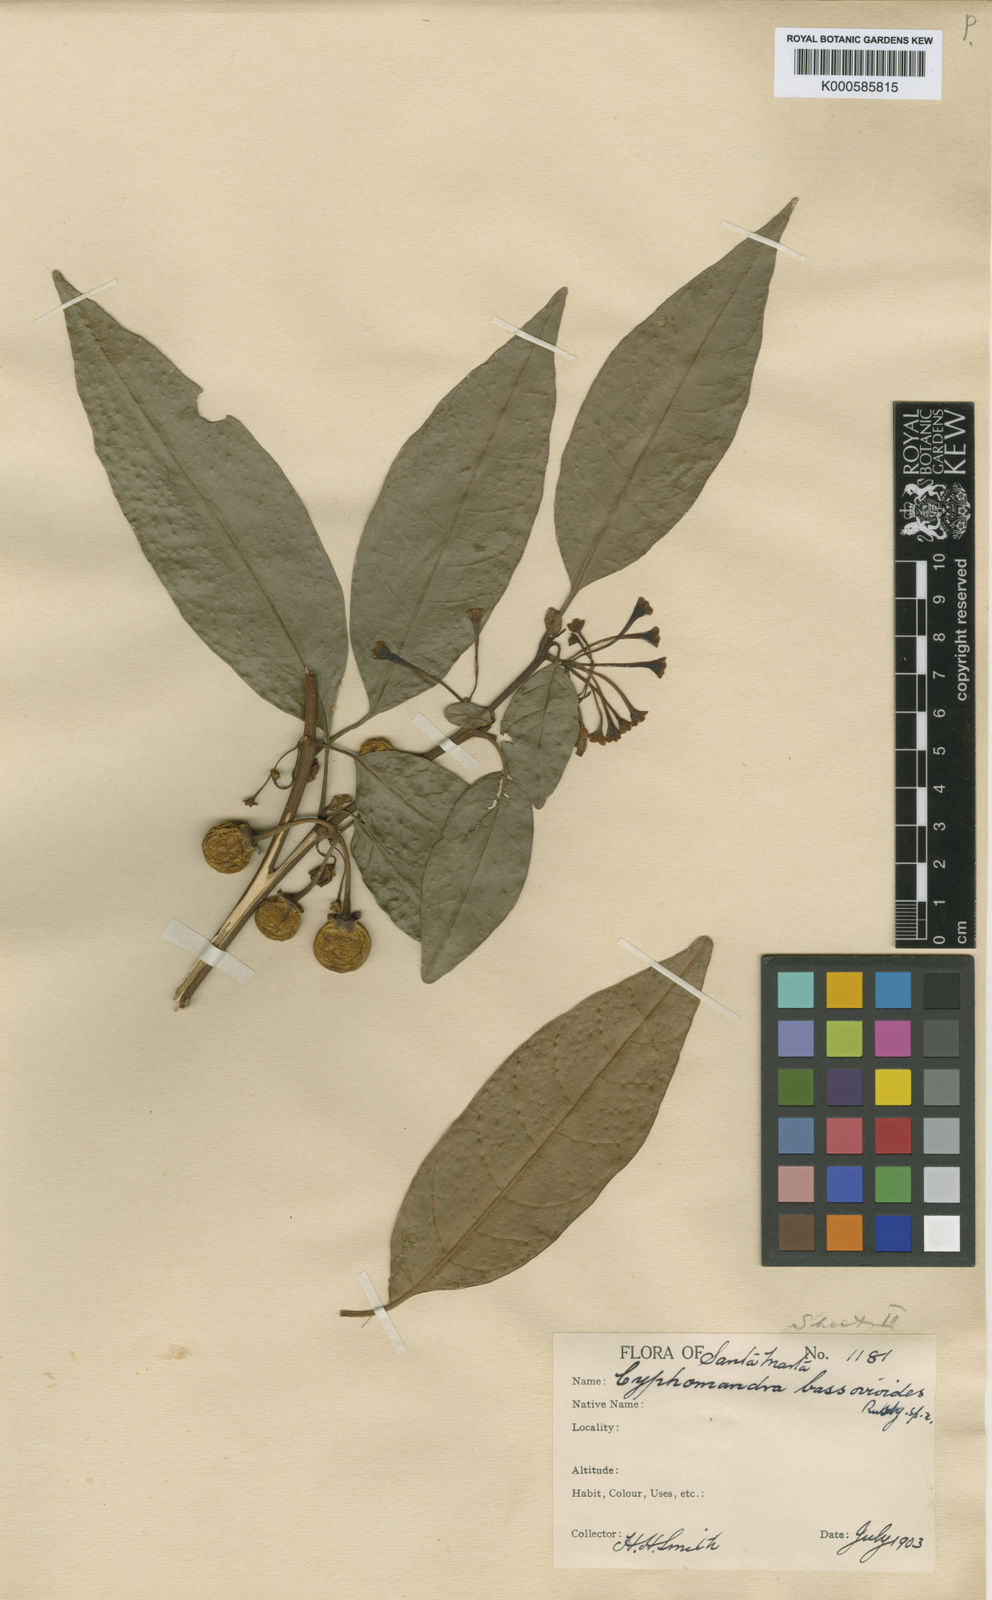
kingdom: Plantae
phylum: Tracheophyta
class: Magnoliopsida
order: Solanales
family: Solanaceae
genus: Solanum
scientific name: Solanum lasiopodium
